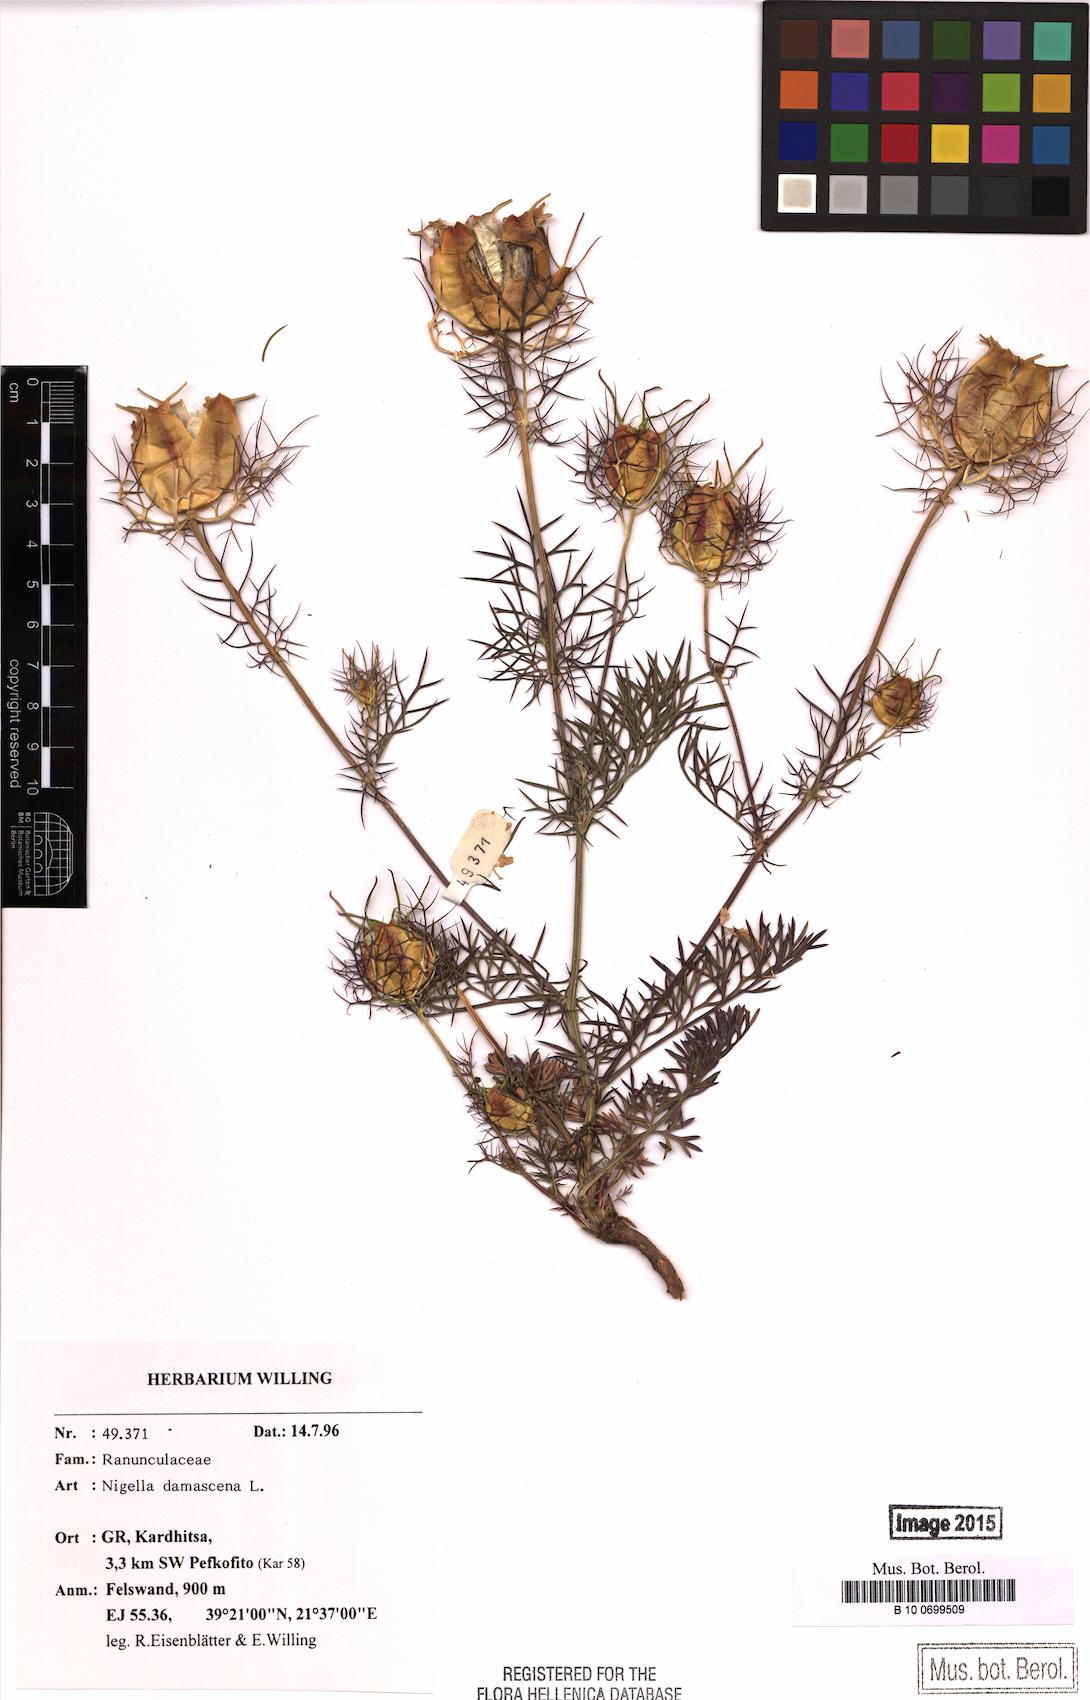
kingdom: Plantae
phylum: Tracheophyta
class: Magnoliopsida
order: Ranunculales
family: Ranunculaceae
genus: Nigella
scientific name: Nigella damascena
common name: Love-in-a-mist
